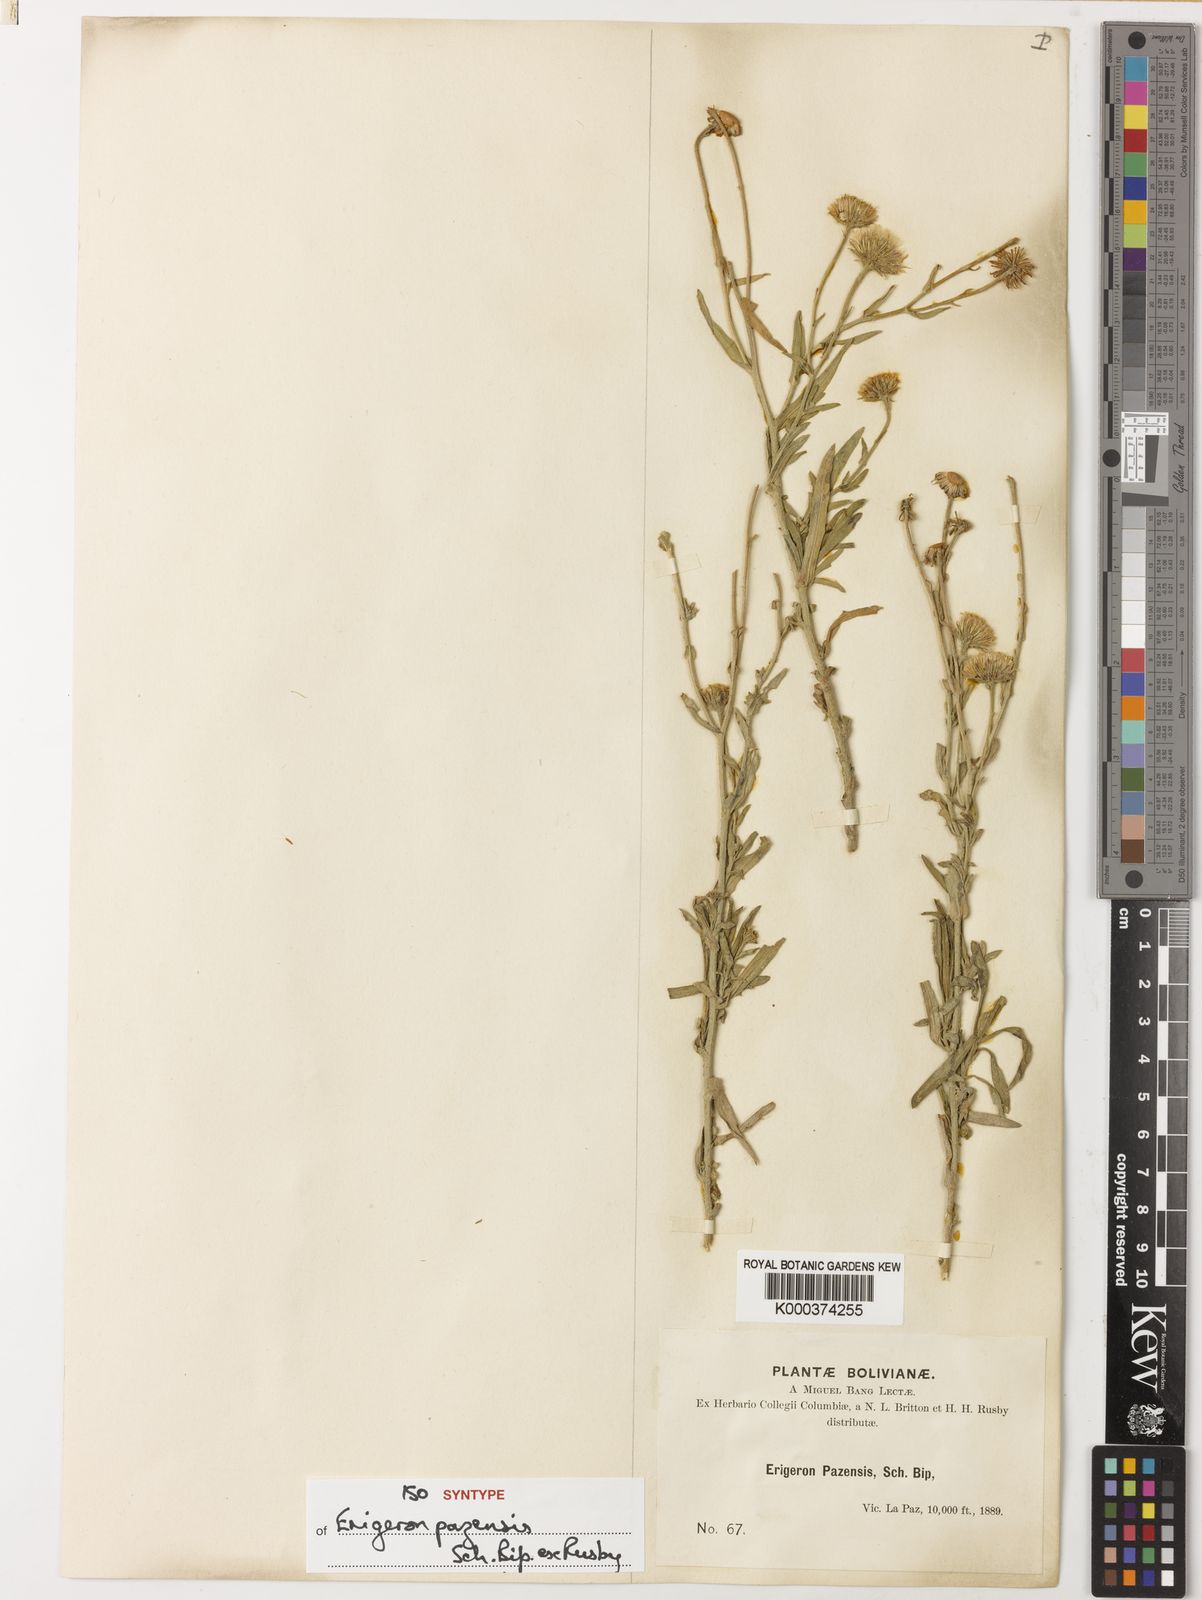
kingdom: Plantae
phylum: Tracheophyta
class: Magnoliopsida
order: Asterales
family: Asteraceae
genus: Erigeron
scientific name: Erigeron
